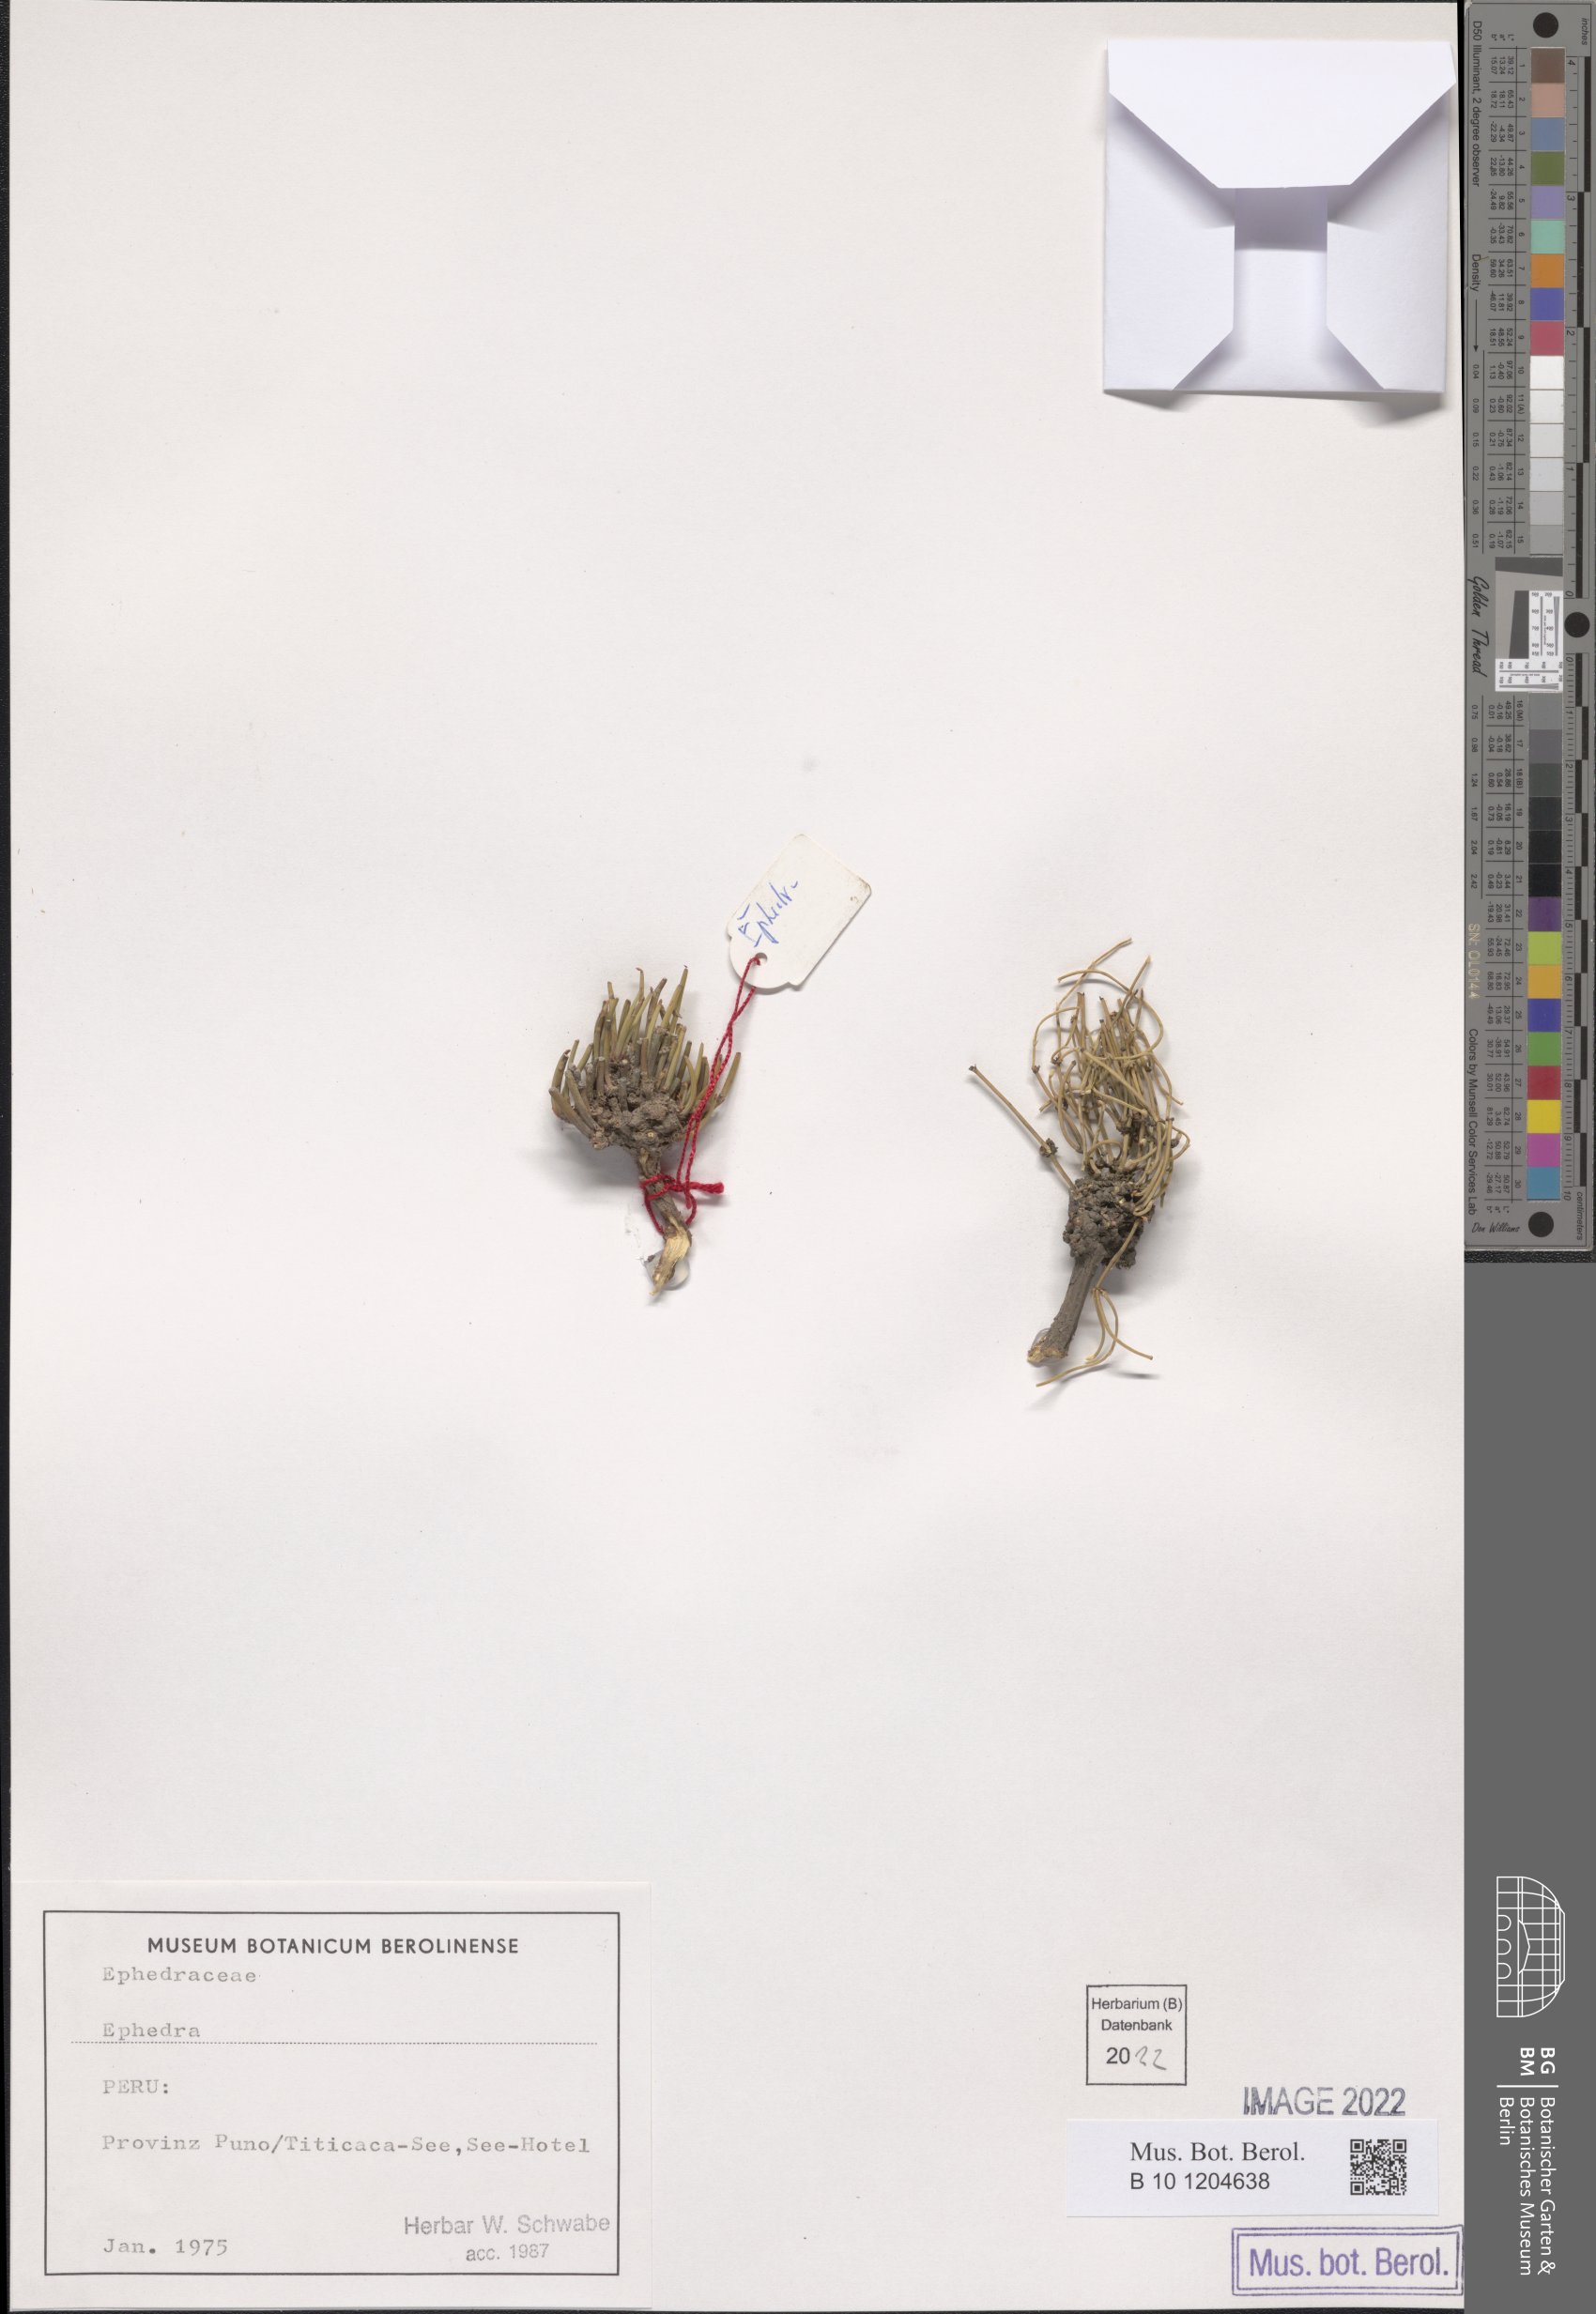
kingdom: Plantae
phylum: Tracheophyta
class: Gnetopsida
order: Ephedrales
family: Ephedraceae
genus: Ephedra
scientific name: Ephedra
